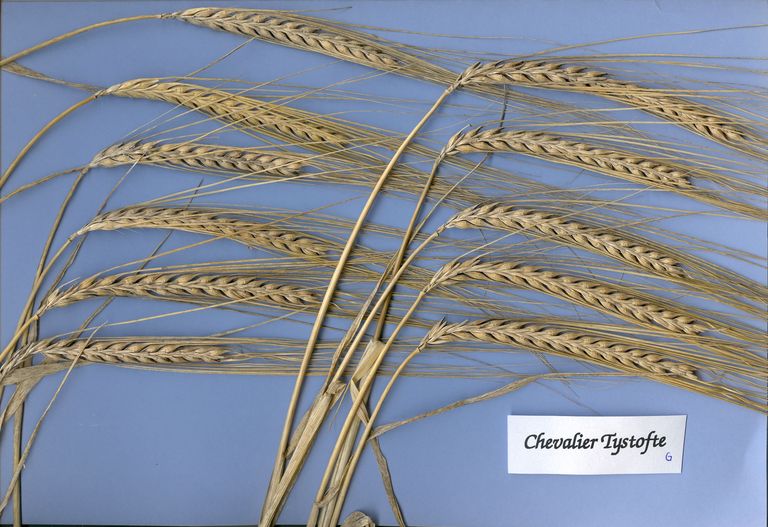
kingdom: Plantae
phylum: Tracheophyta
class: Liliopsida
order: Poales
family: Poaceae
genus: Hordeum
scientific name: Hordeum vulgare
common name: Common barley
